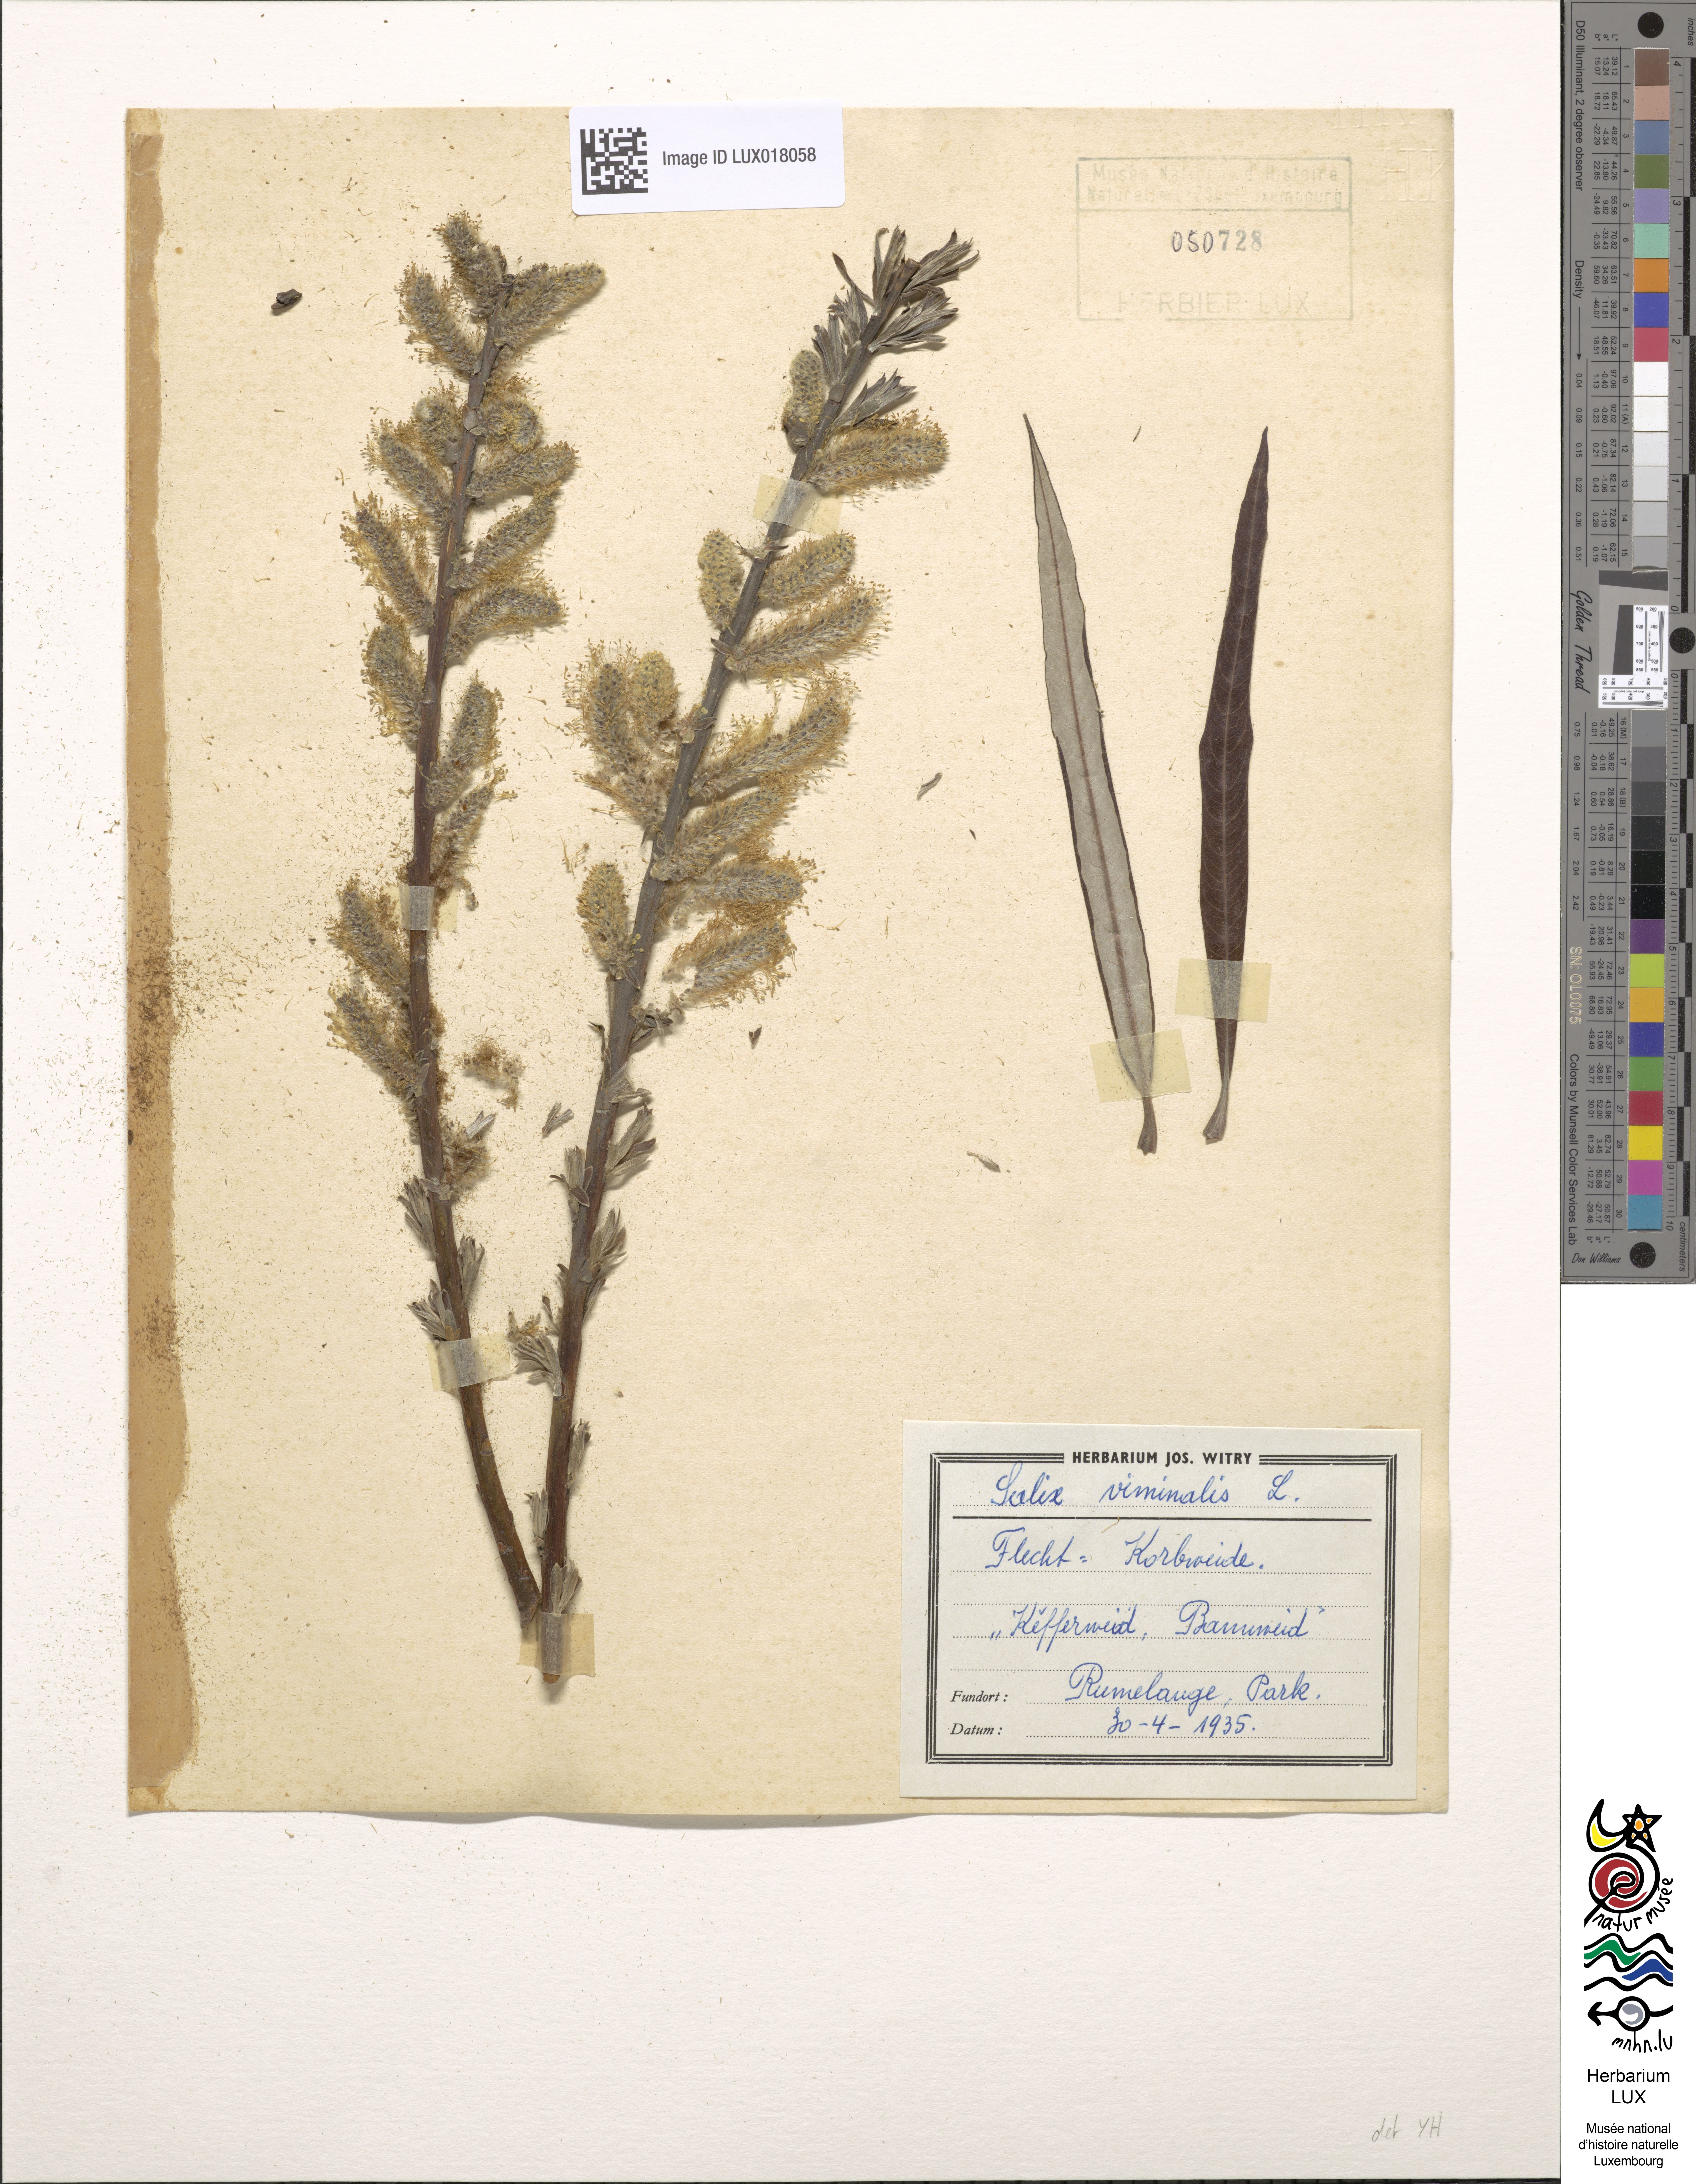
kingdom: Plantae
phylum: Tracheophyta
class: Magnoliopsida
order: Malpighiales
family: Salicaceae
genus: Salix
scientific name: Salix viminalis
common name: Osier
